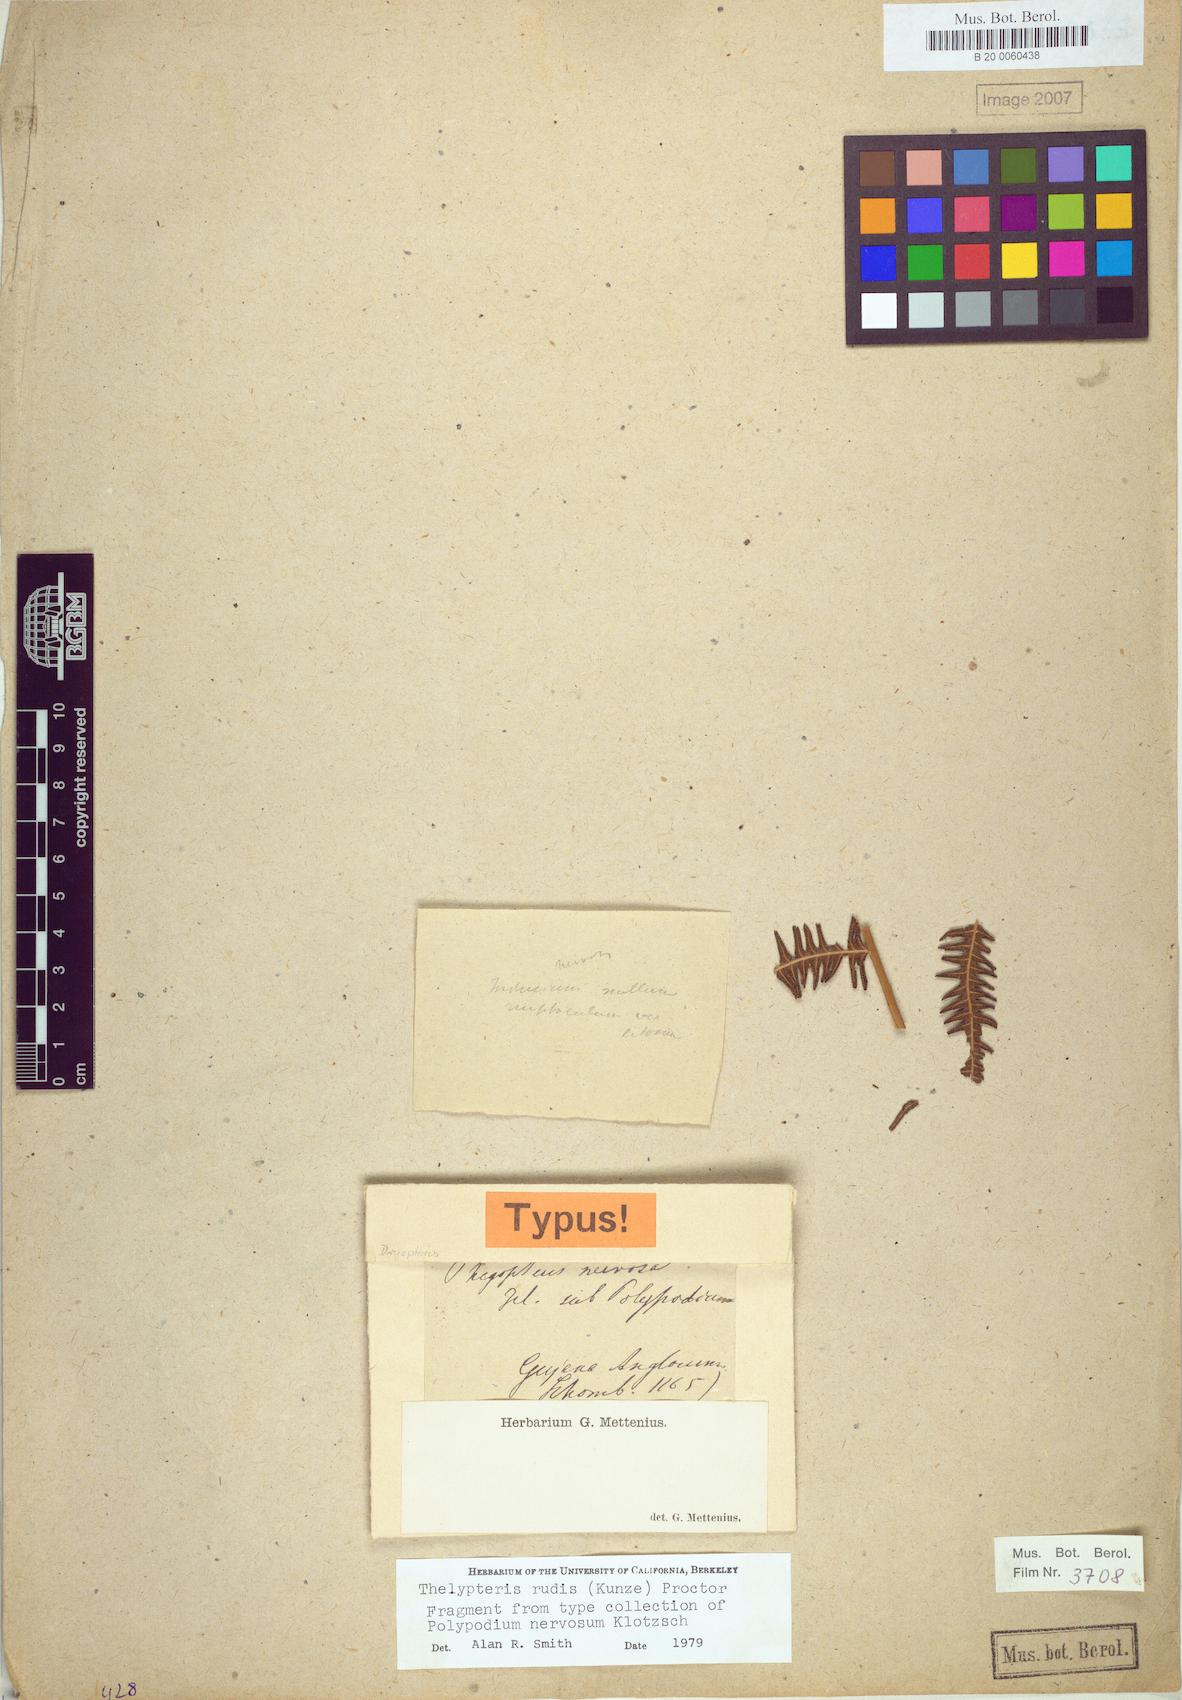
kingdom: Plantae
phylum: Tracheophyta
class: Polypodiopsida
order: Polypodiales
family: Thelypteridaceae
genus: Amauropelta
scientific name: Amauropelta rudis
